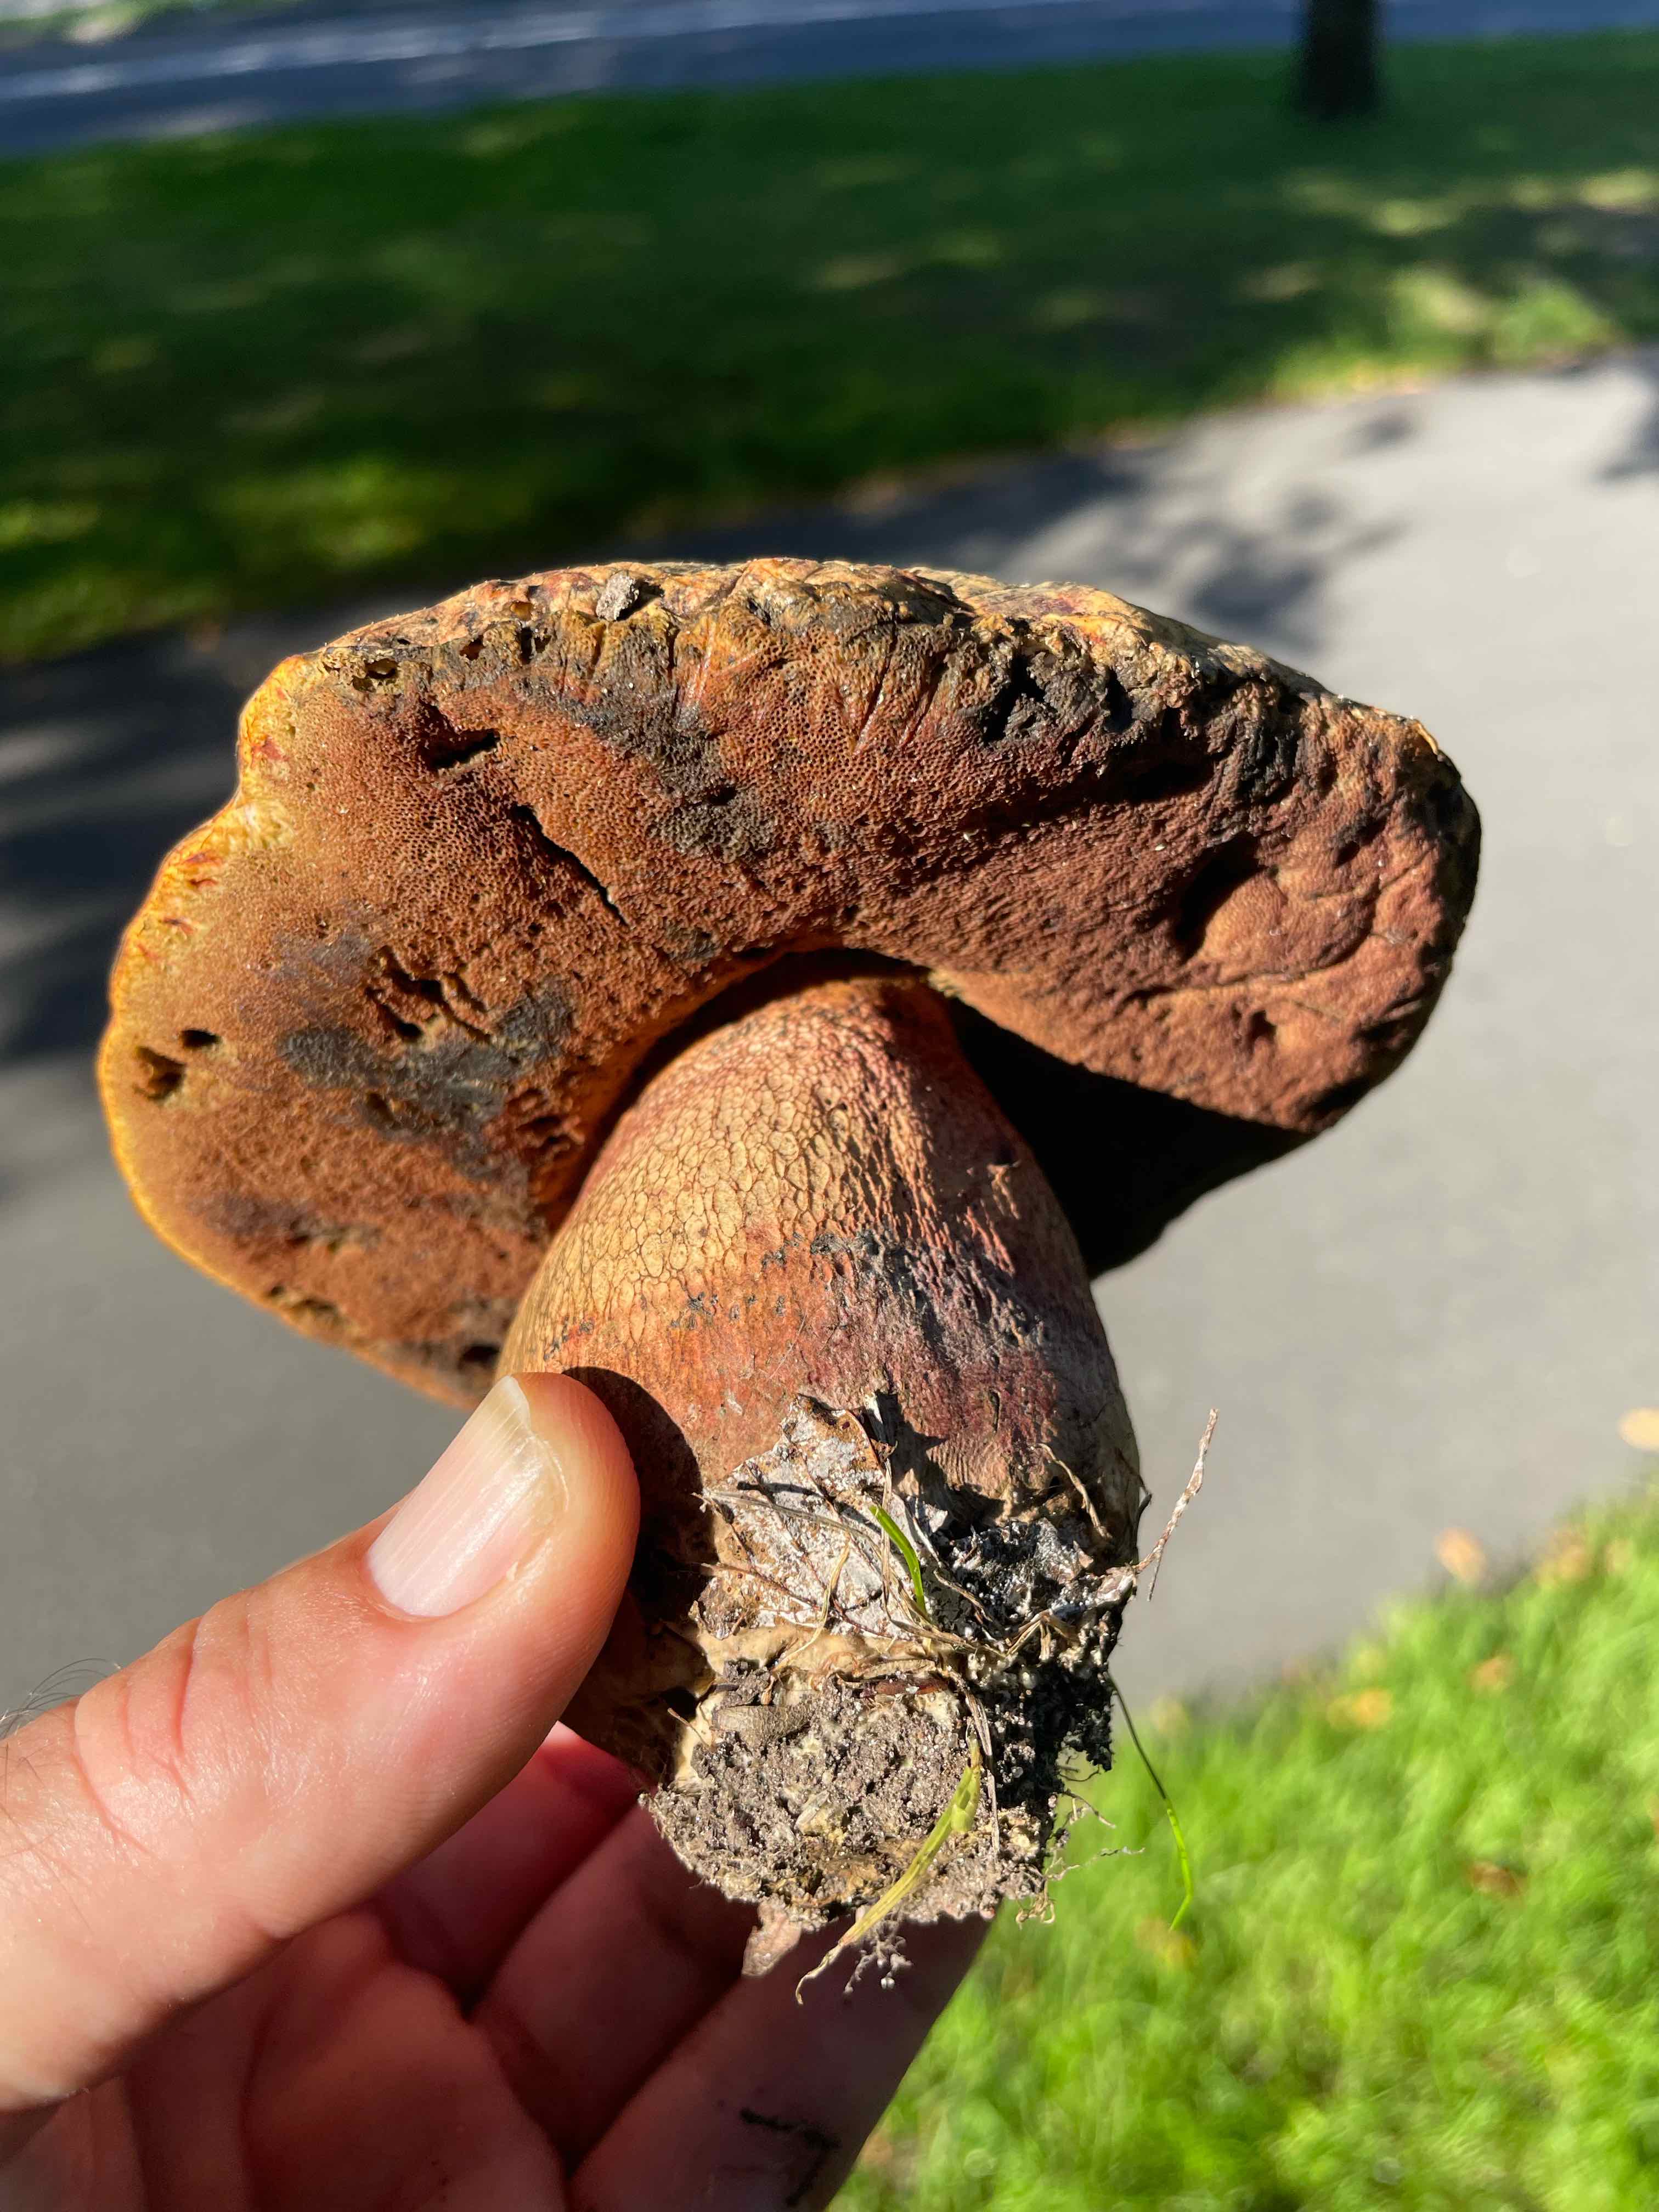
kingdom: Fungi
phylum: Basidiomycota
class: Agaricomycetes
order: Boletales
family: Boletaceae
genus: Suillellus
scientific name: Suillellus luridus
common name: netstokket indigorørhat
